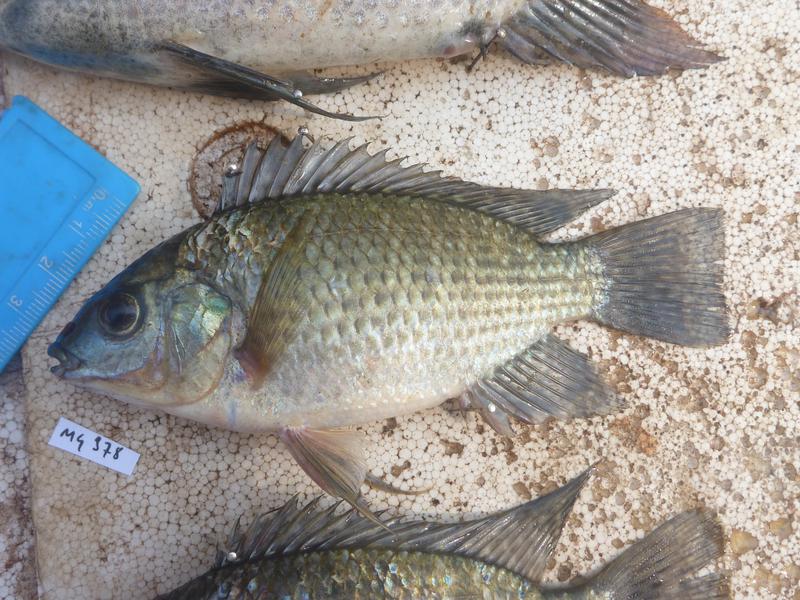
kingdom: Animalia
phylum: Chordata
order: Perciformes
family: Cichlidae
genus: Oreochromis
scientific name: Oreochromis leucostictus
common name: Blue spotted tilapia
